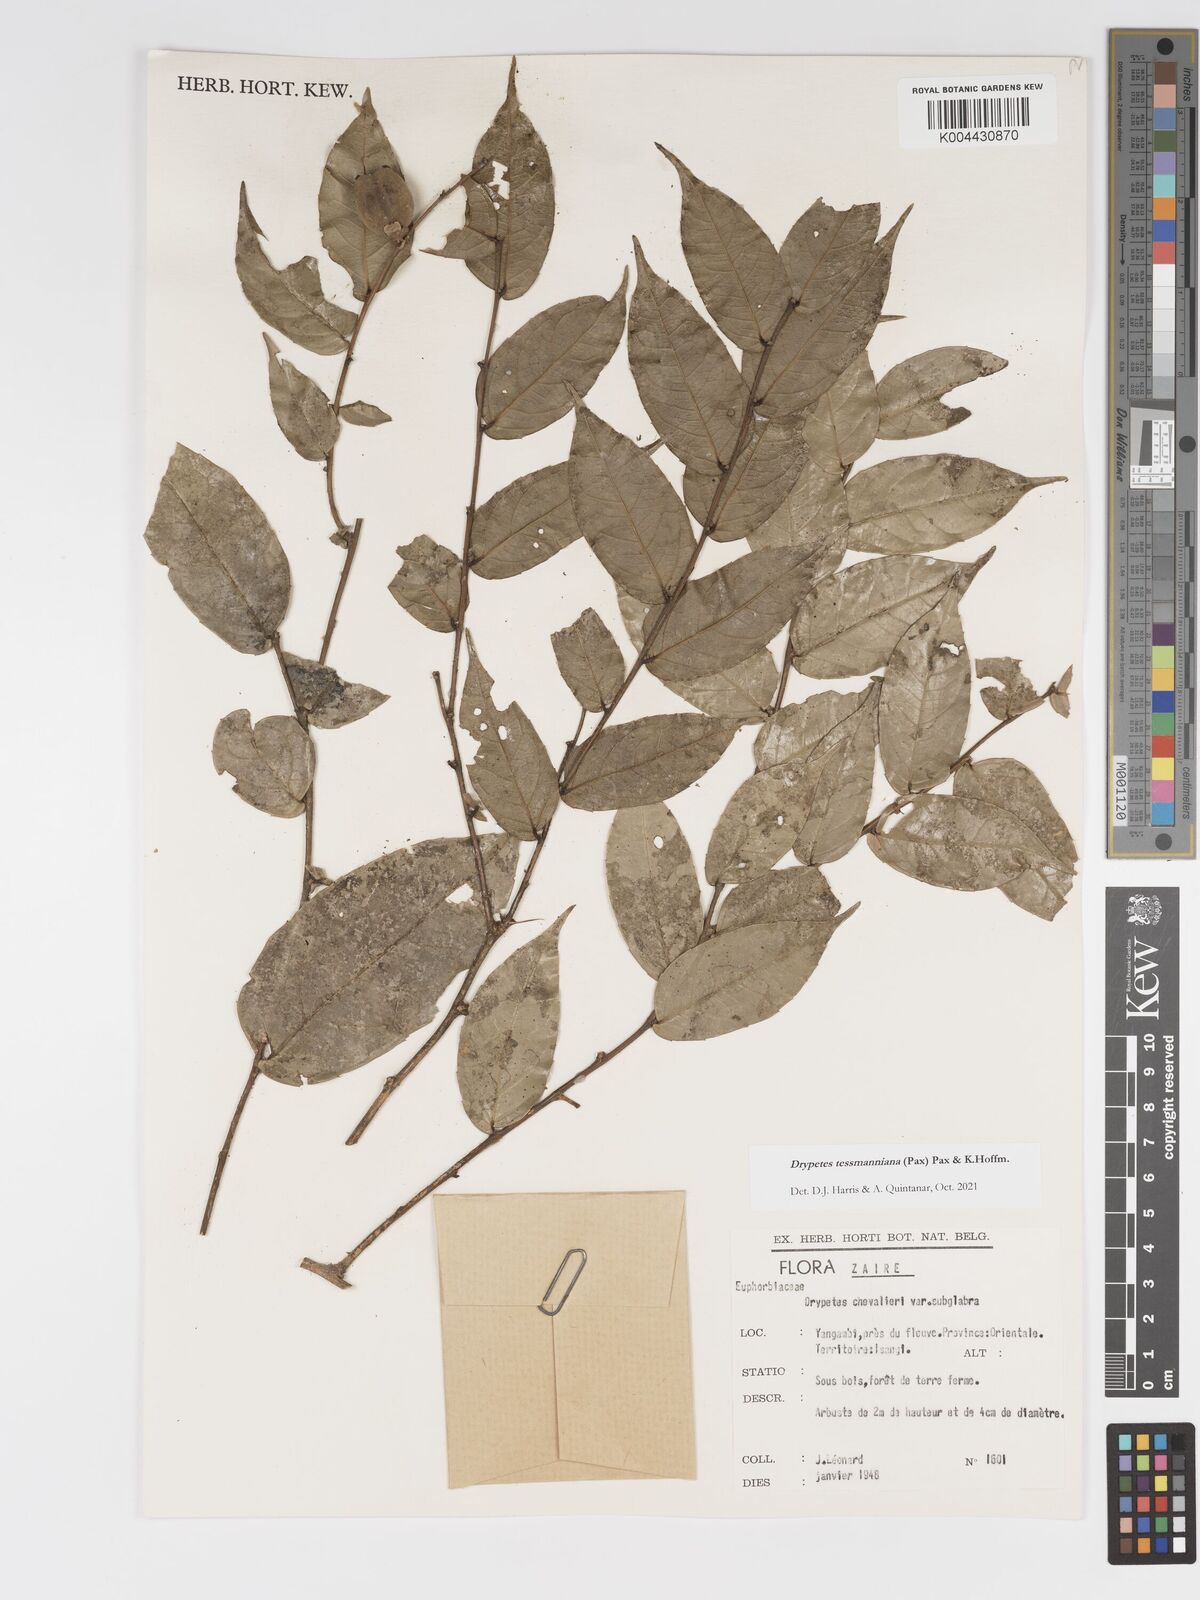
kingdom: Plantae
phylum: Tracheophyta
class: Magnoliopsida
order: Malpighiales
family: Putranjivaceae
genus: Drypetes
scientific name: Drypetes tessmanniana
